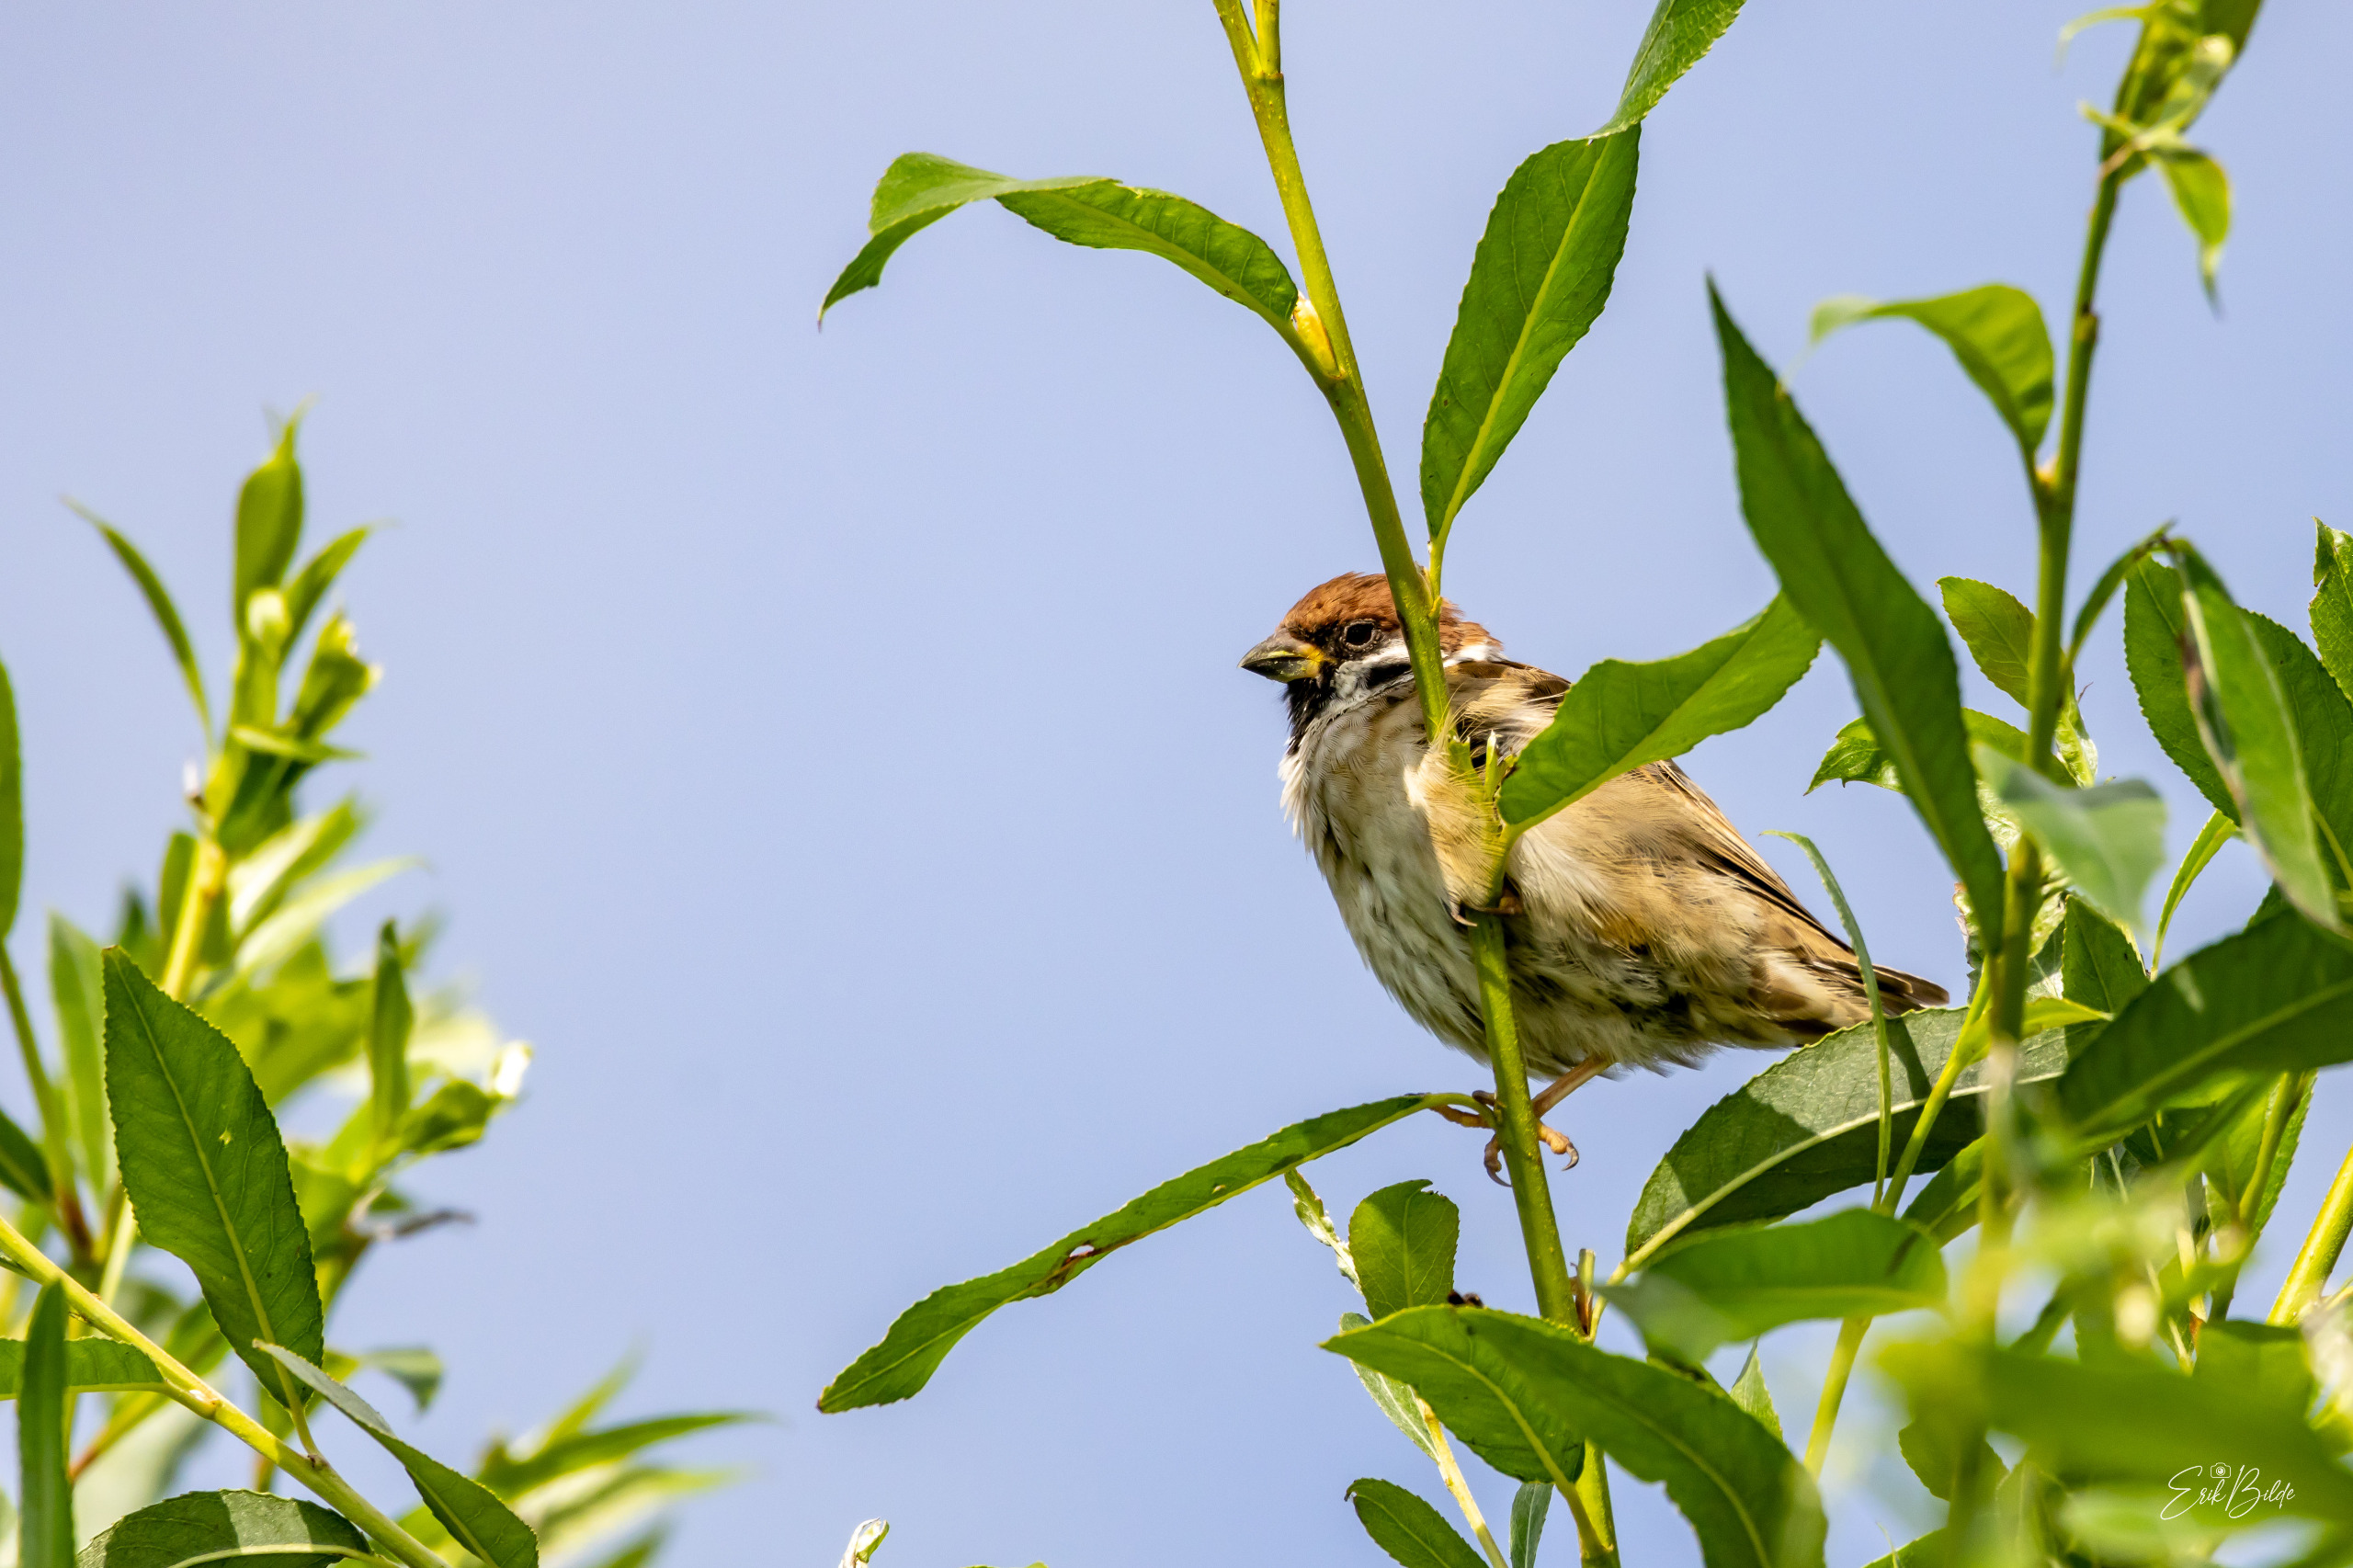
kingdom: Animalia
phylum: Chordata
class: Aves
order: Passeriformes
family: Passeridae
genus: Passer
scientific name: Passer montanus
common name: Skovspurv
